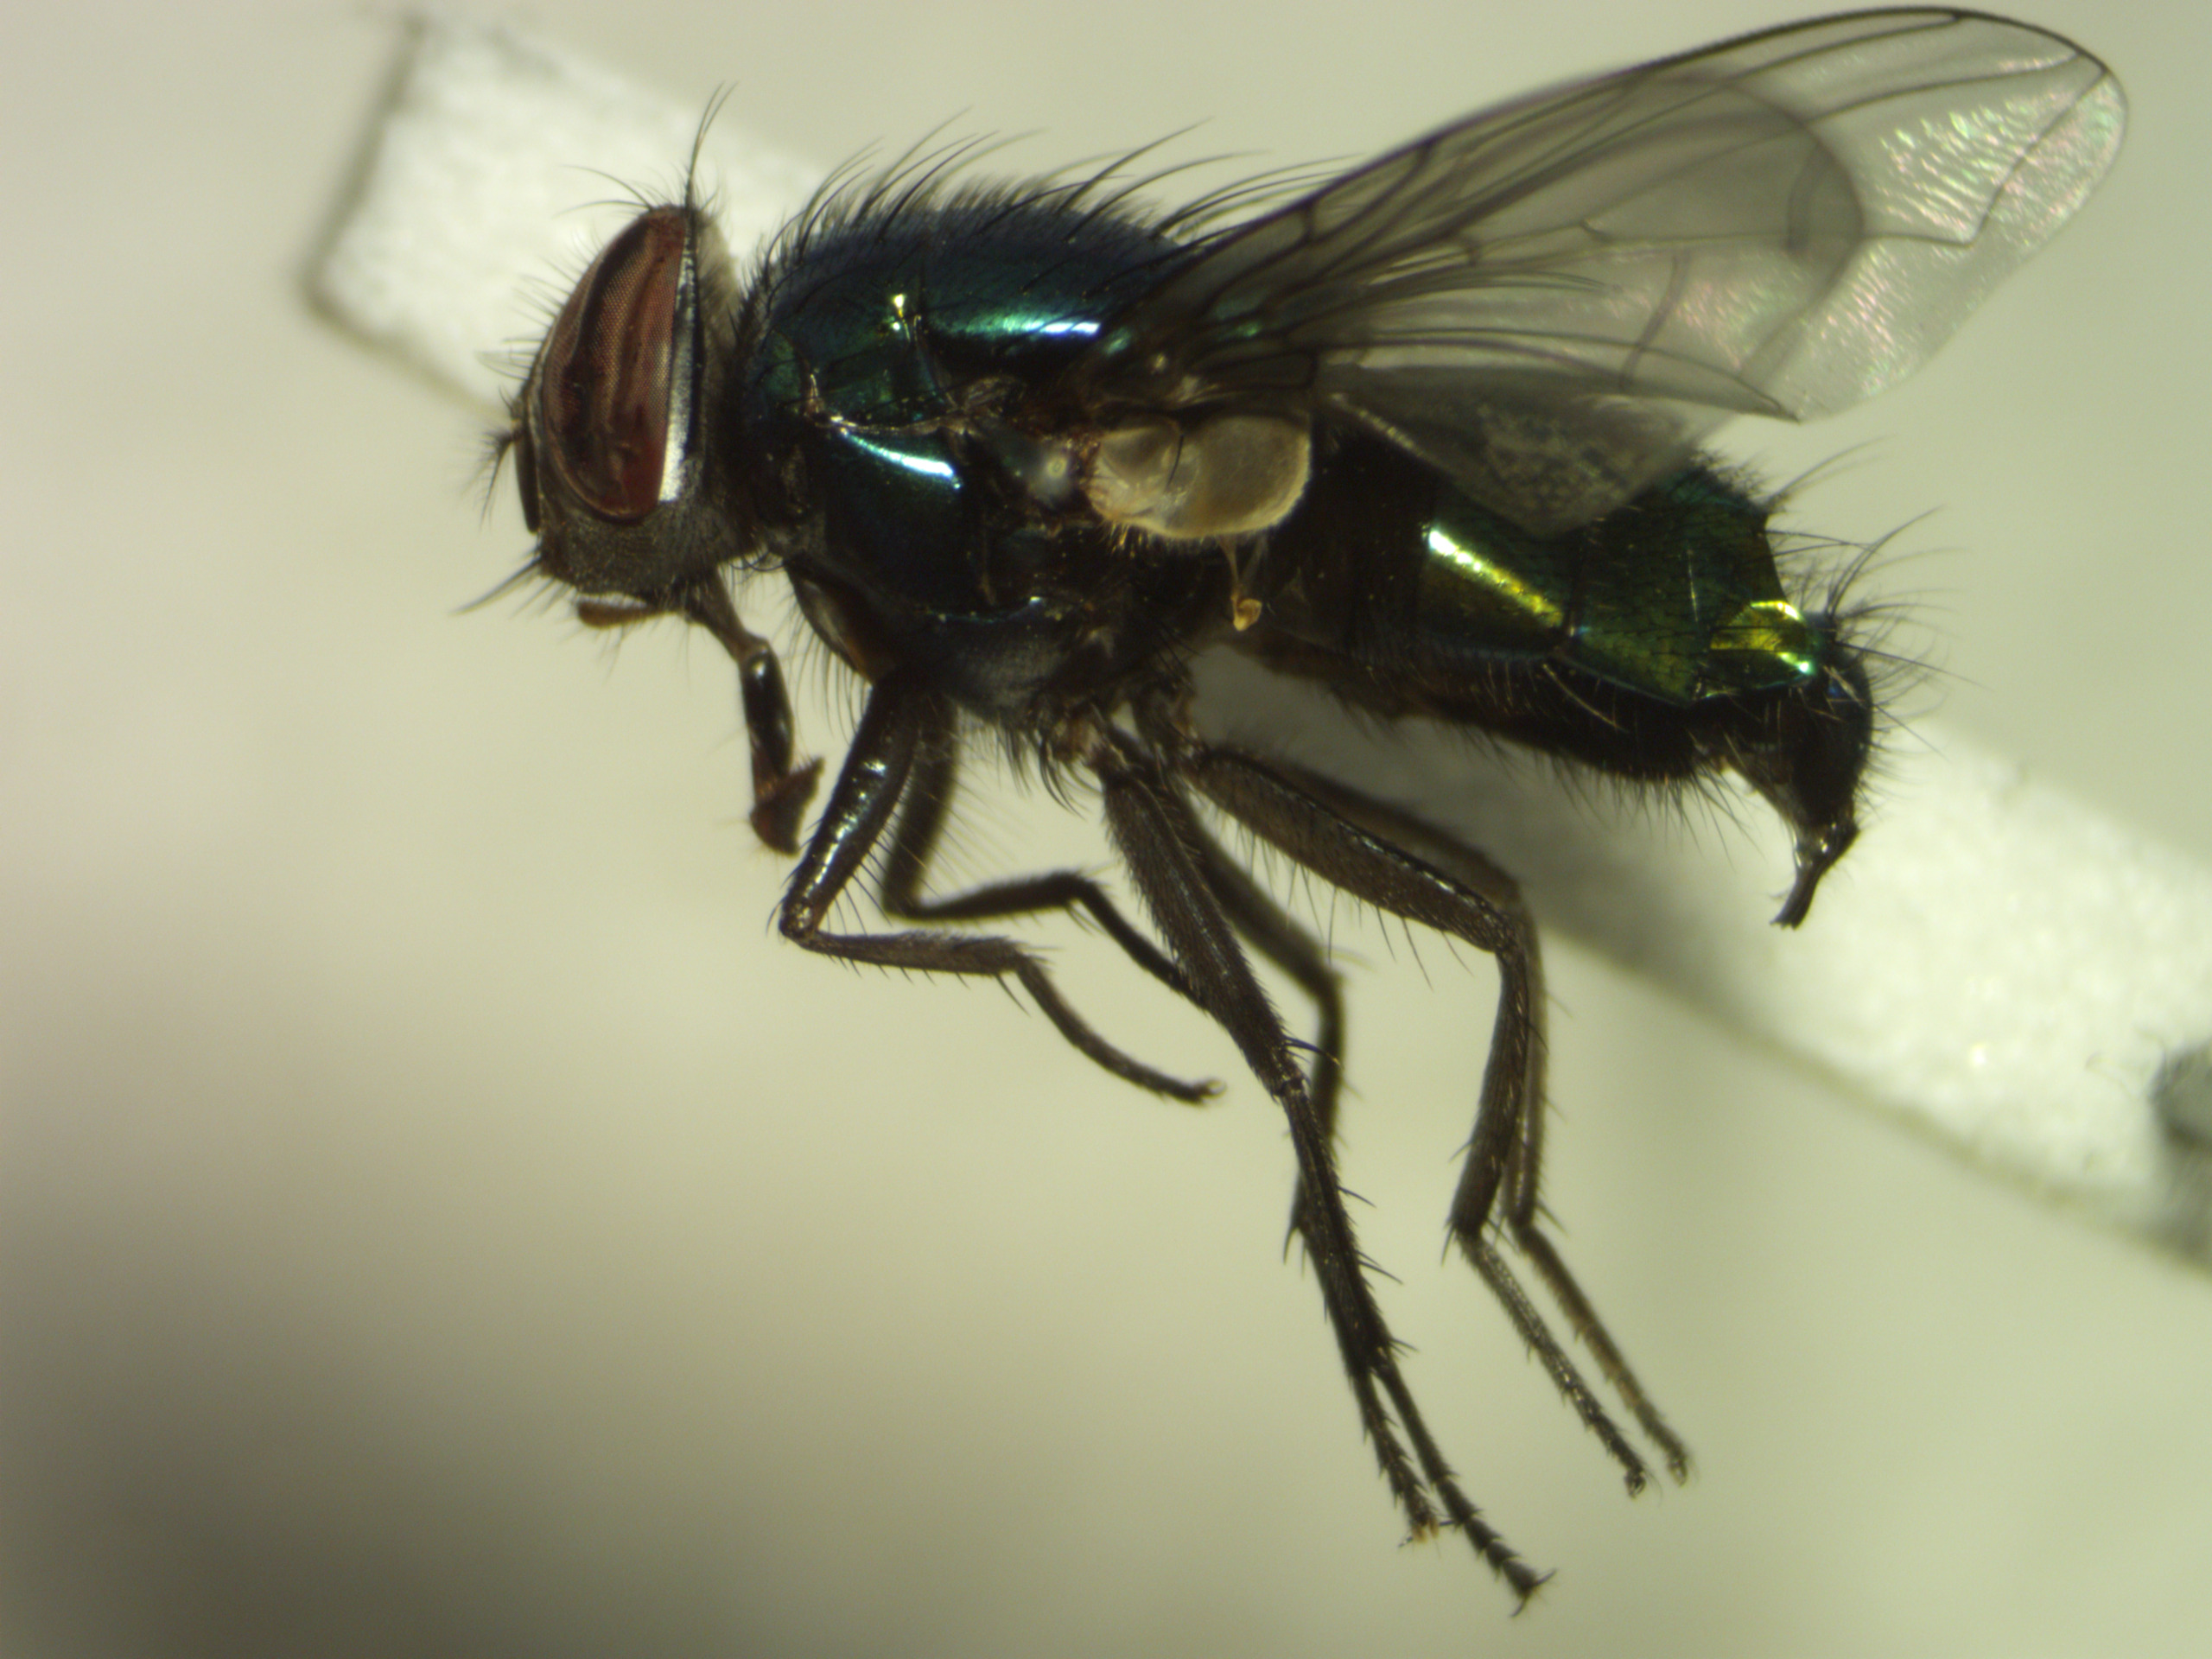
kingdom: Animalia
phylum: Arthropoda
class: Insecta
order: Diptera
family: Calliphoridae
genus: Lucilia
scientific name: Lucilia caesar
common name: Almindelig guldflue
